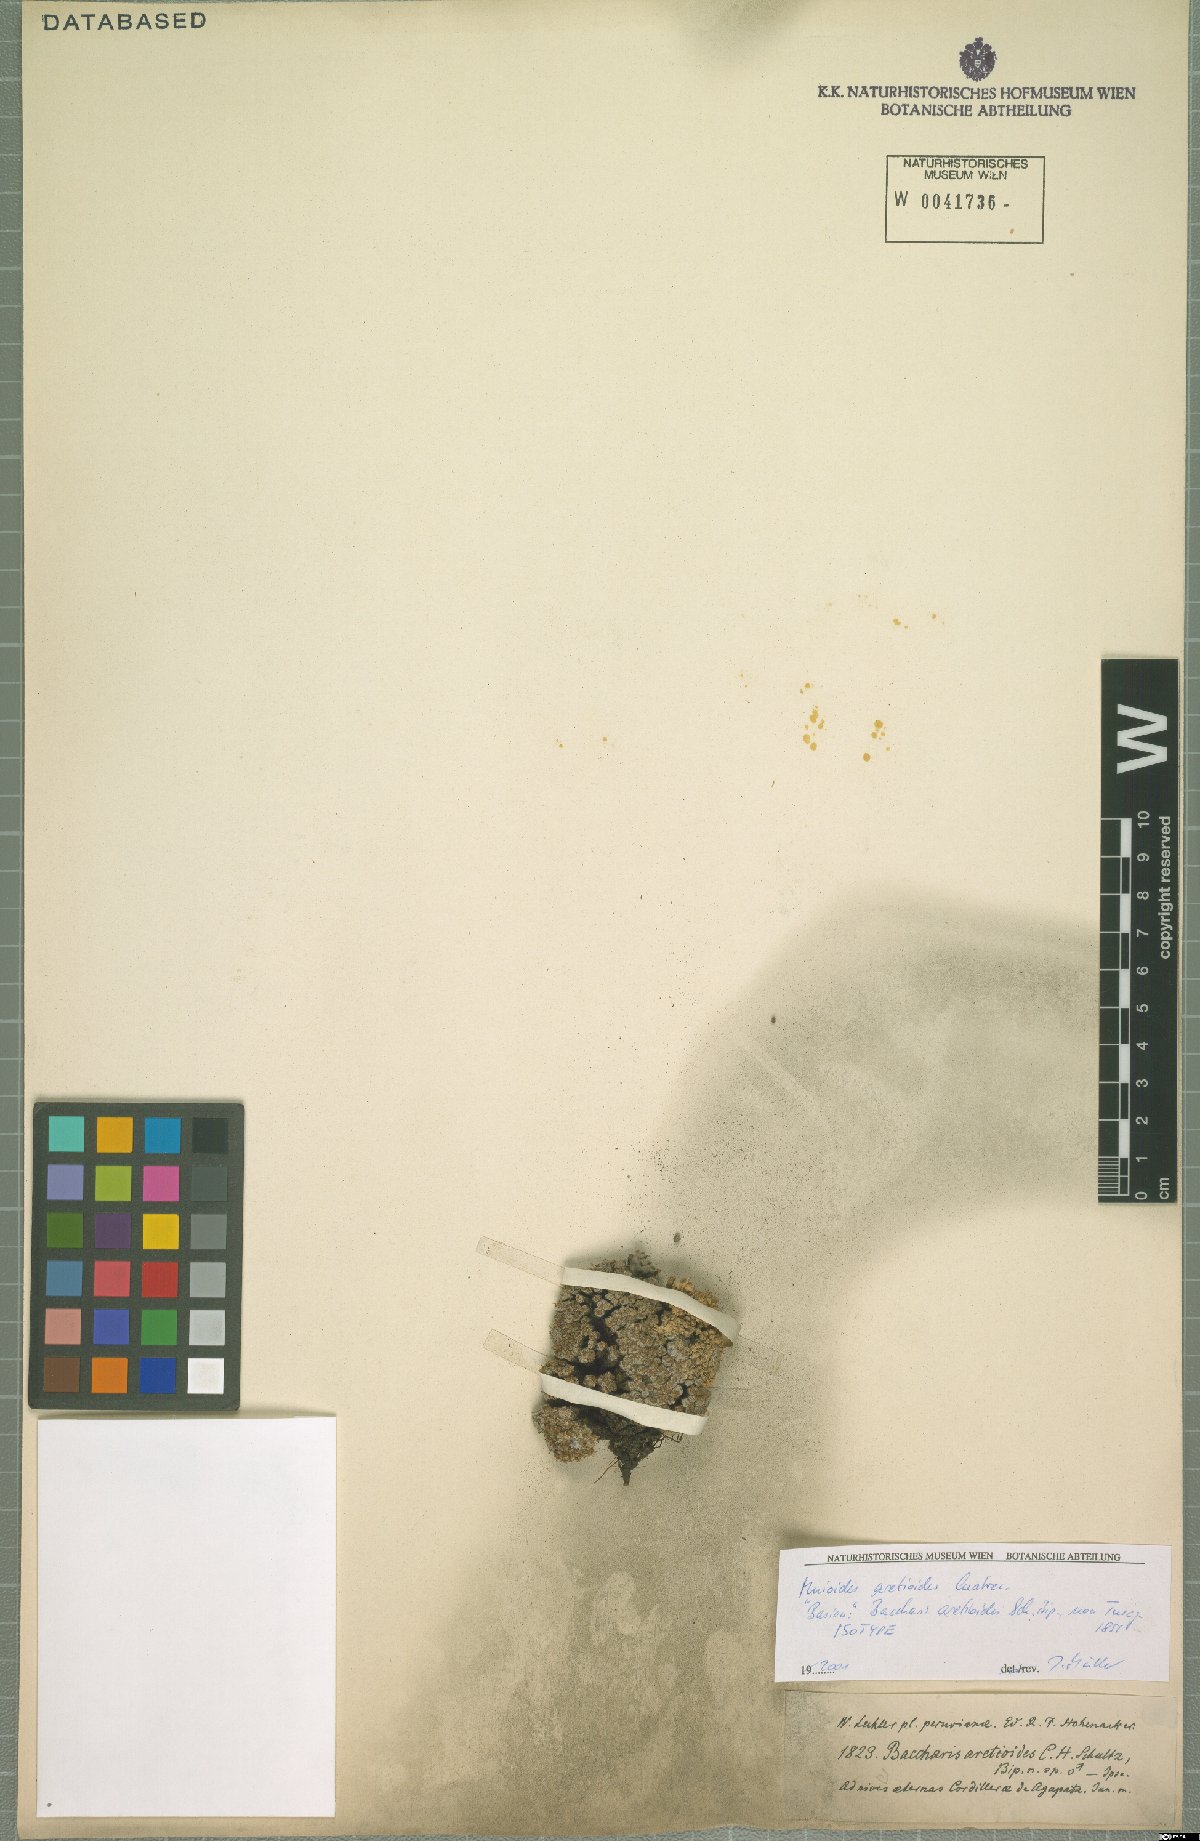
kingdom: Plantae
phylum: Tracheophyta
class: Magnoliopsida
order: Asterales
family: Asteraceae
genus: Mniodes
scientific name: Mniodes aretioides
